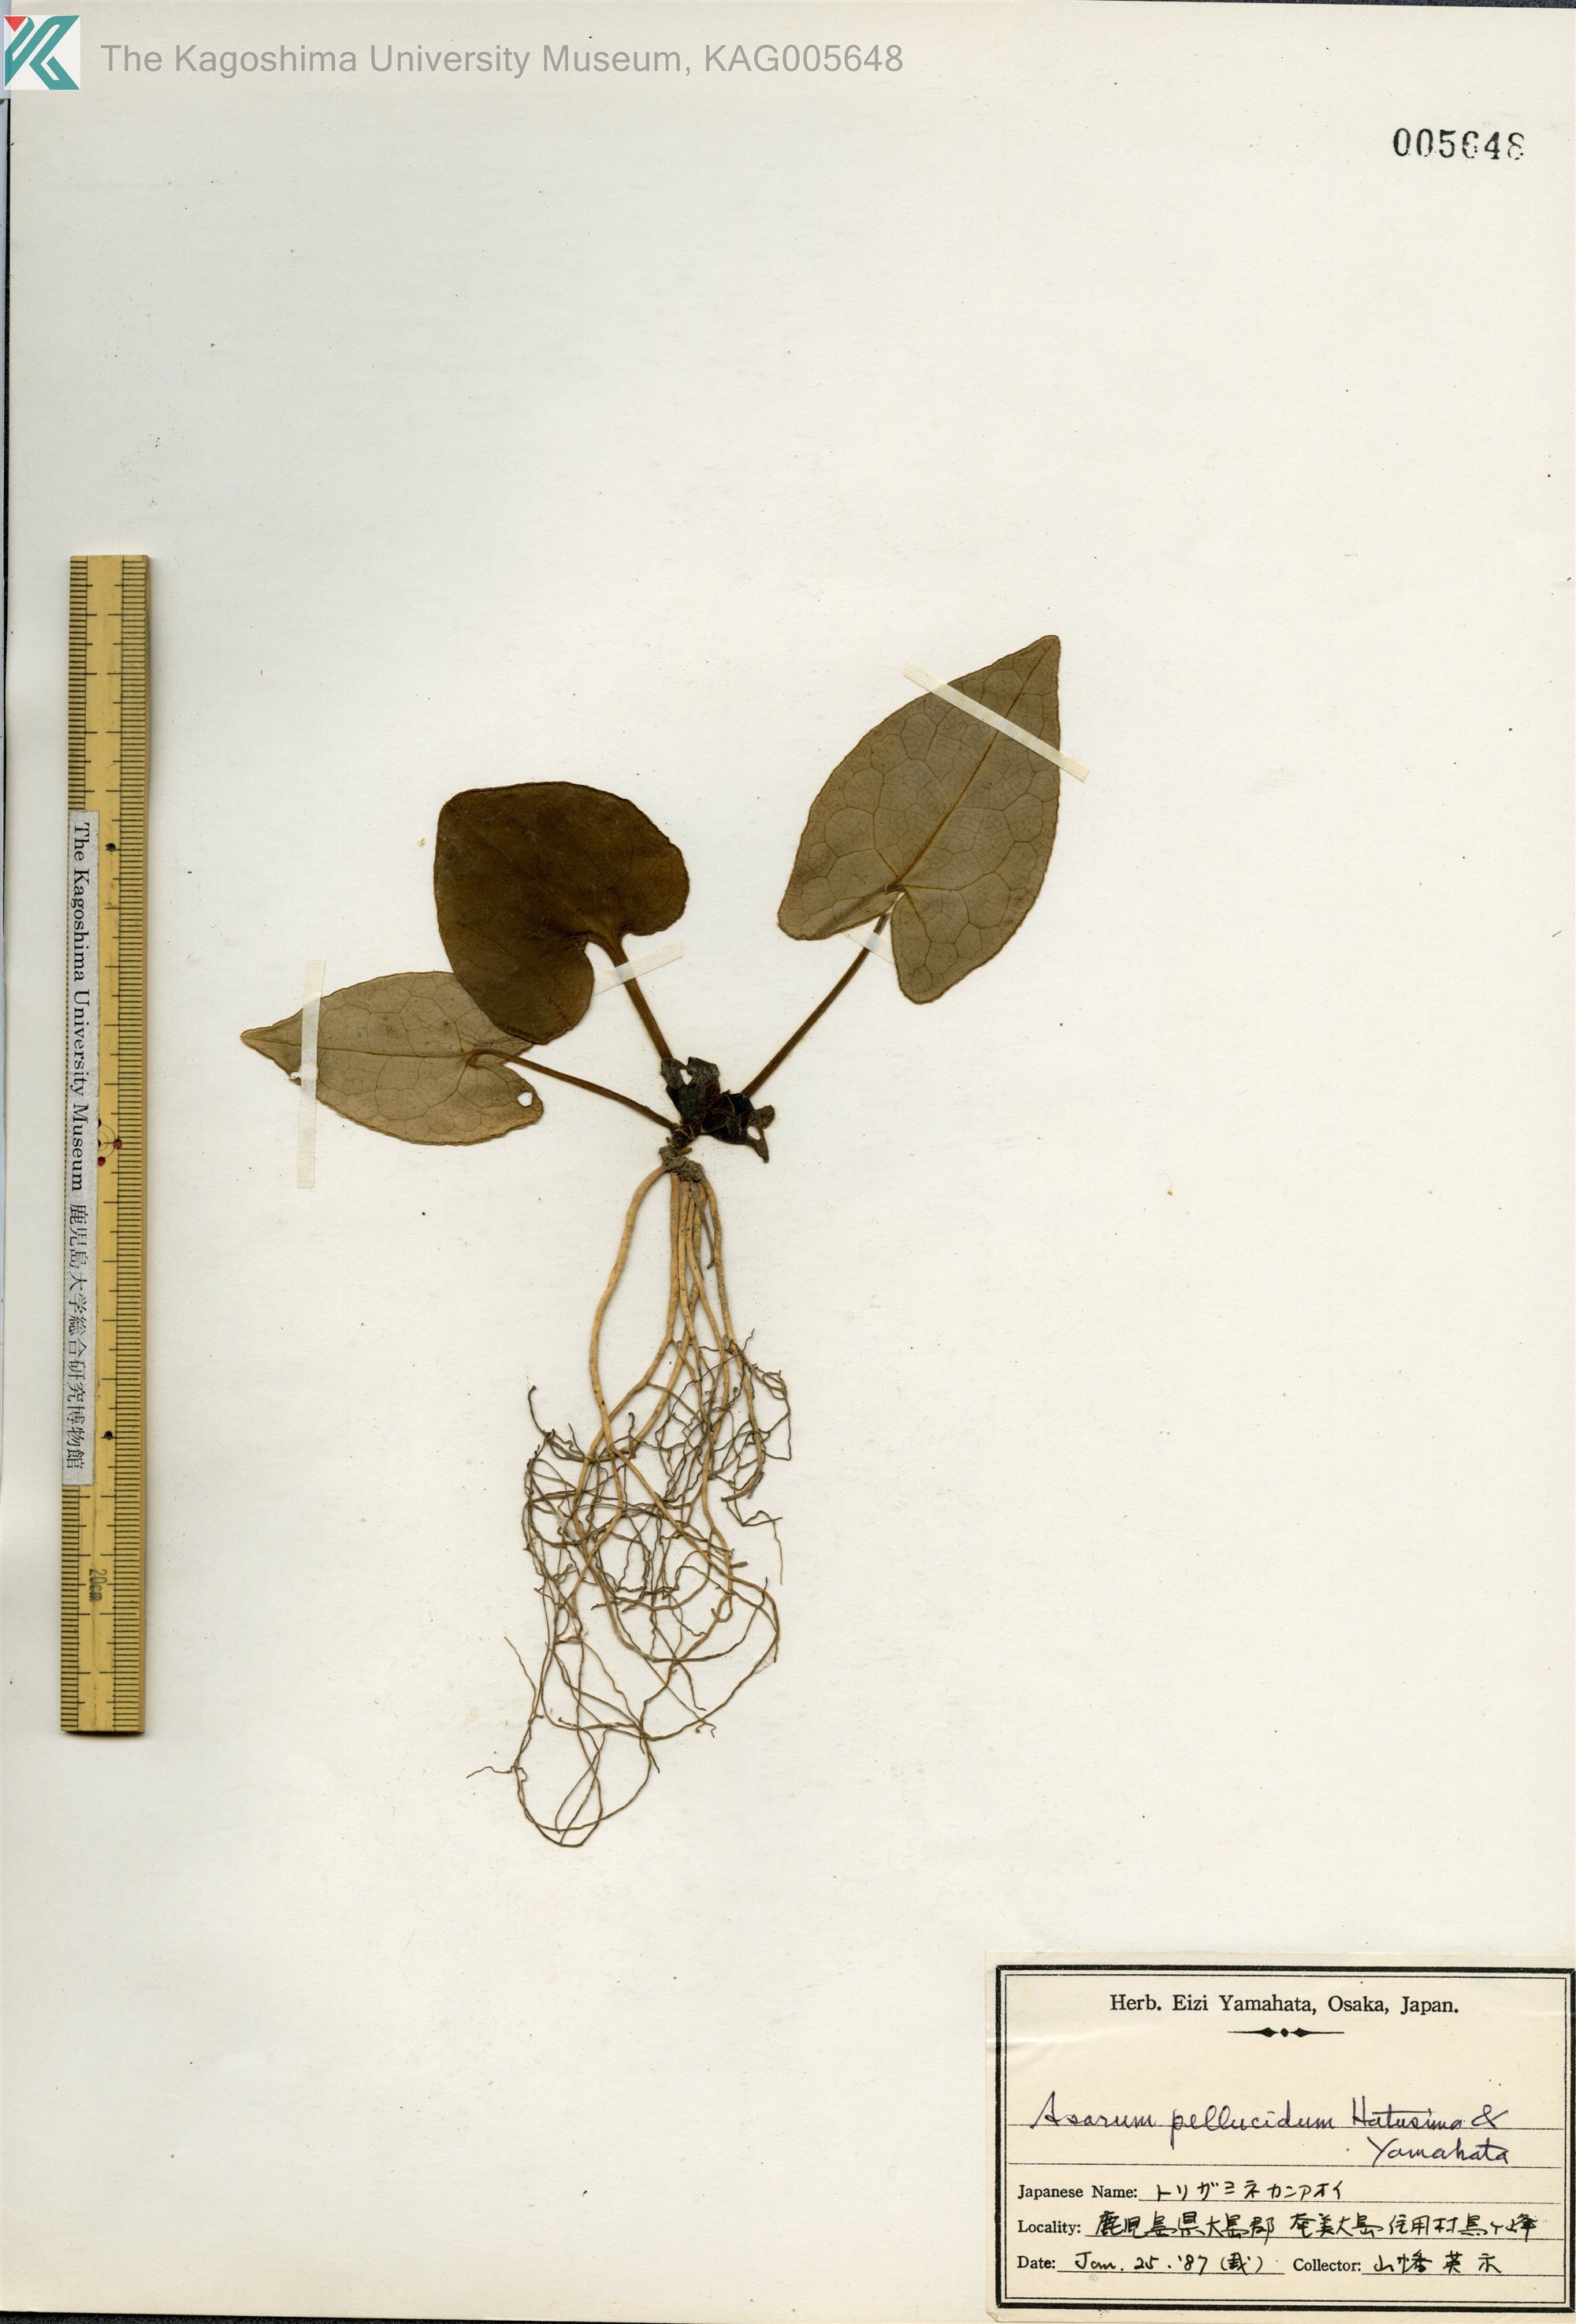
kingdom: Plantae
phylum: Tracheophyta
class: Magnoliopsida
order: Piperales
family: Aristolochiaceae
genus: Asarum
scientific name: Asarum pellucidum
